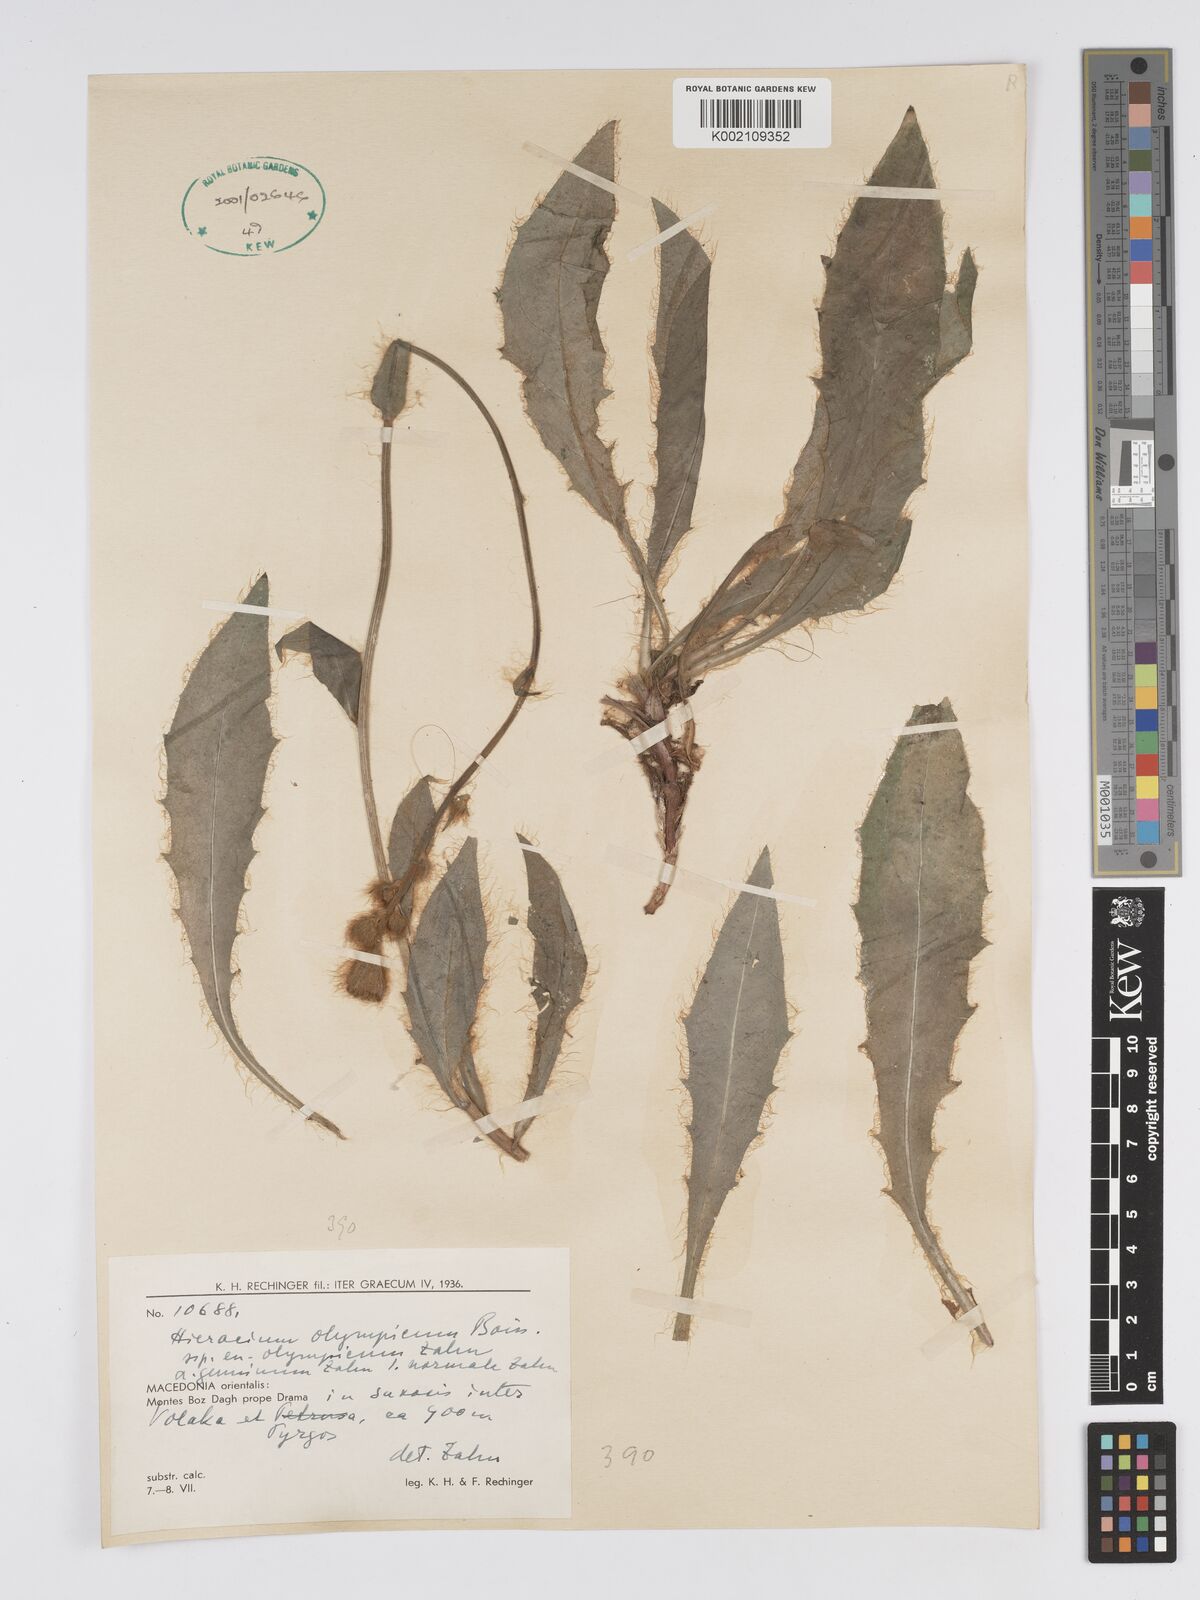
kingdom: Plantae
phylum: Tracheophyta
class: Magnoliopsida
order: Asterales
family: Asteraceae
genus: Hieracium
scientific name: Hieracium olympicum
